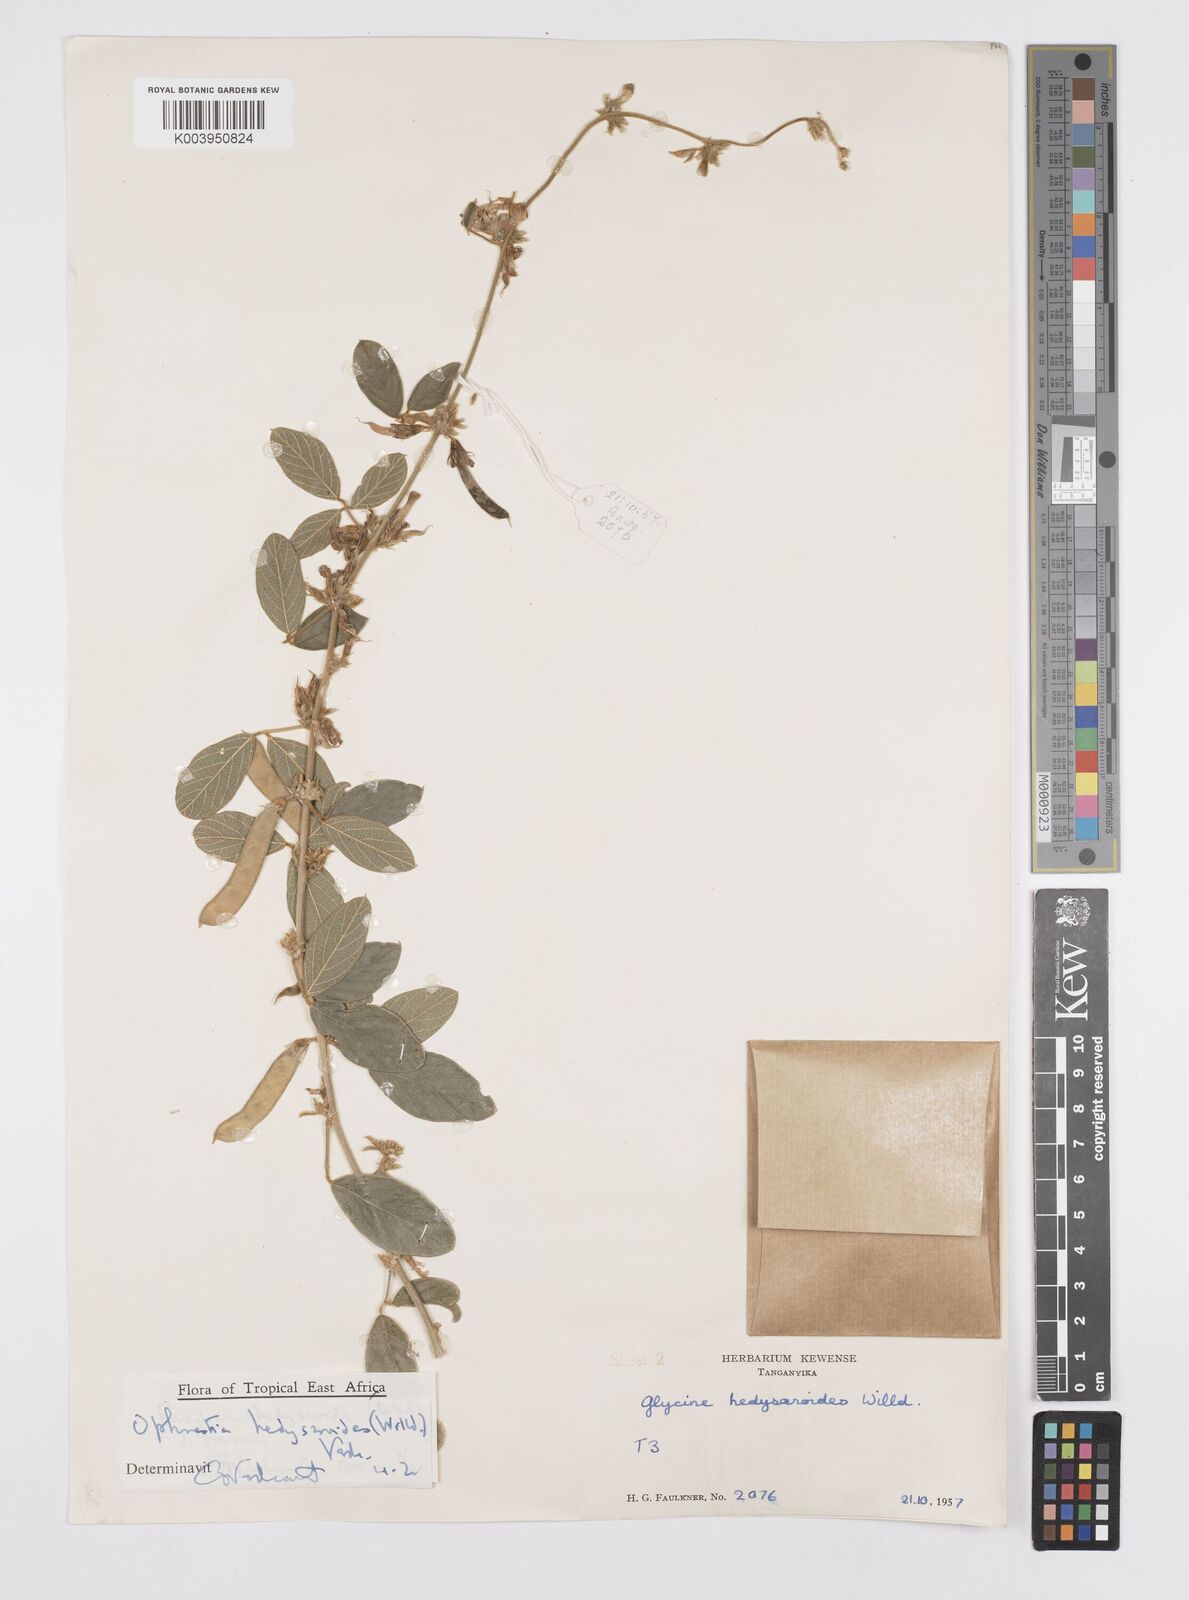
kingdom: Plantae
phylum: Tracheophyta
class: Magnoliopsida
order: Fabales
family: Fabaceae
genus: Ophrestia
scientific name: Ophrestia hedysaroides
